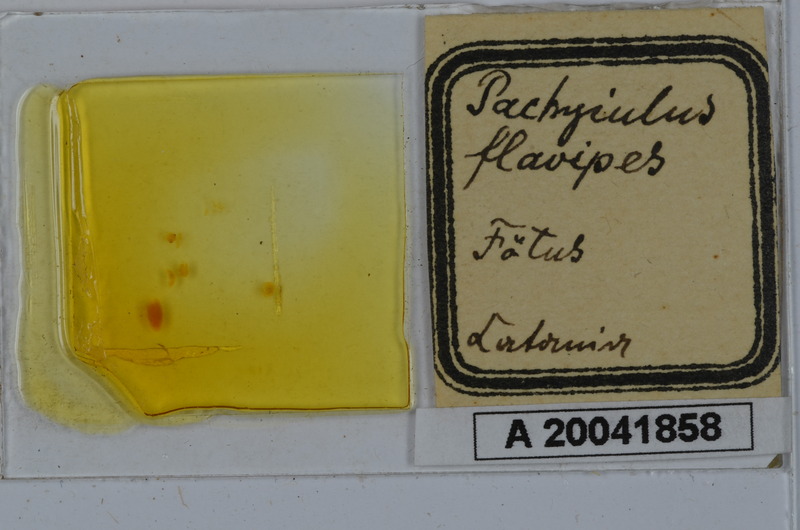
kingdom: Animalia
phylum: Arthropoda
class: Diplopoda
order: Julida
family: Julidae
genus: Pachyiulus
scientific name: Pachyiulus flavipes
